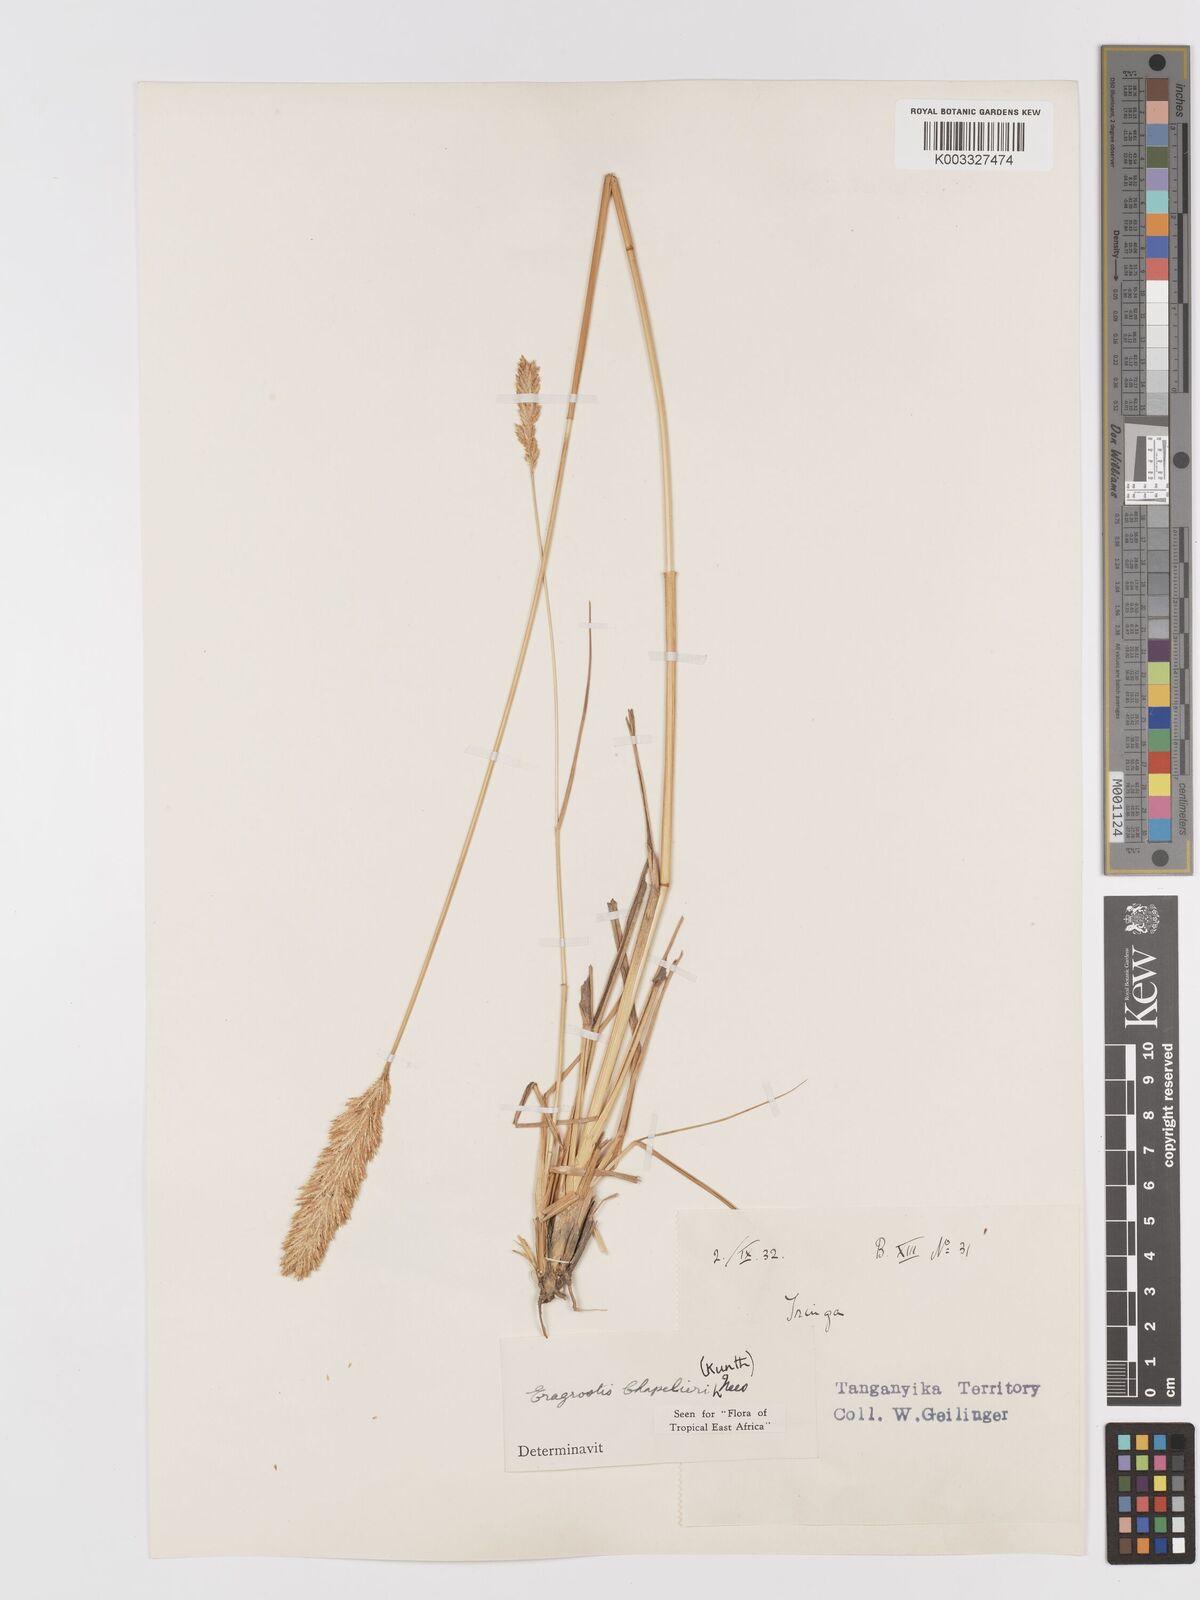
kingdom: Plantae
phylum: Tracheophyta
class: Liliopsida
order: Poales
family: Poaceae
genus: Eragrostis
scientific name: Eragrostis chapelieri
